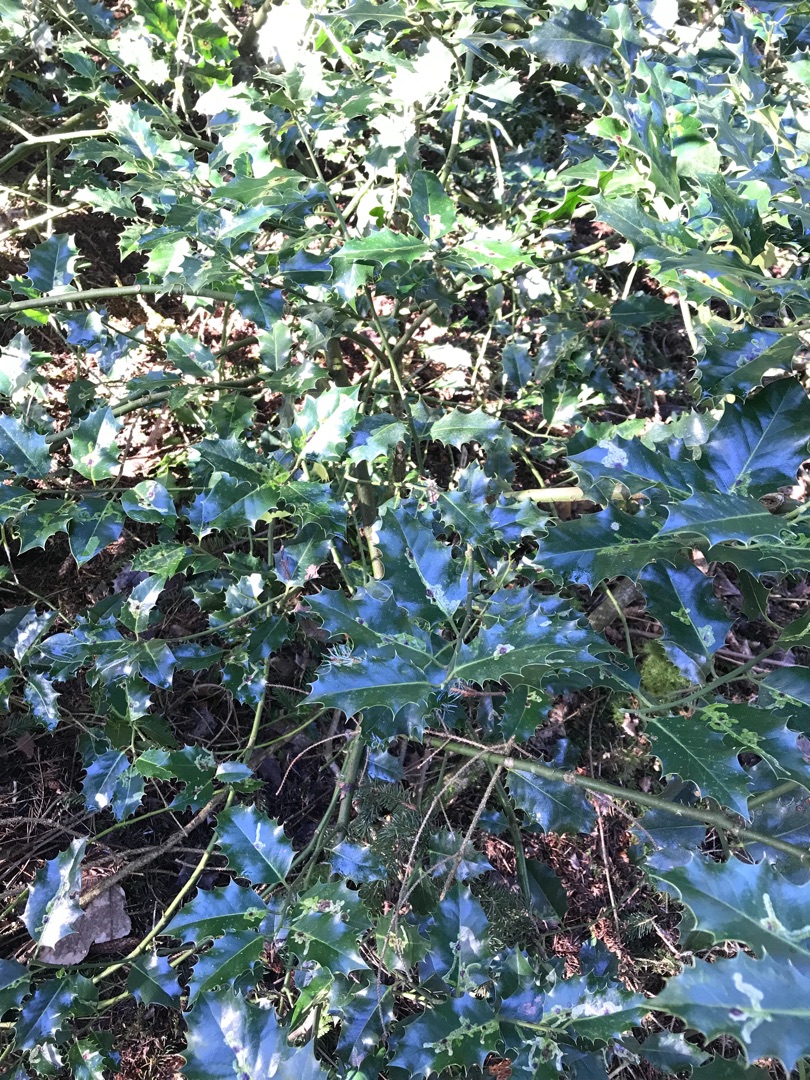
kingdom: Plantae
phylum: Tracheophyta
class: Magnoliopsida
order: Aquifoliales
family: Aquifoliaceae
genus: Ilex
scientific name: Ilex aquifolium
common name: Kristtorn
